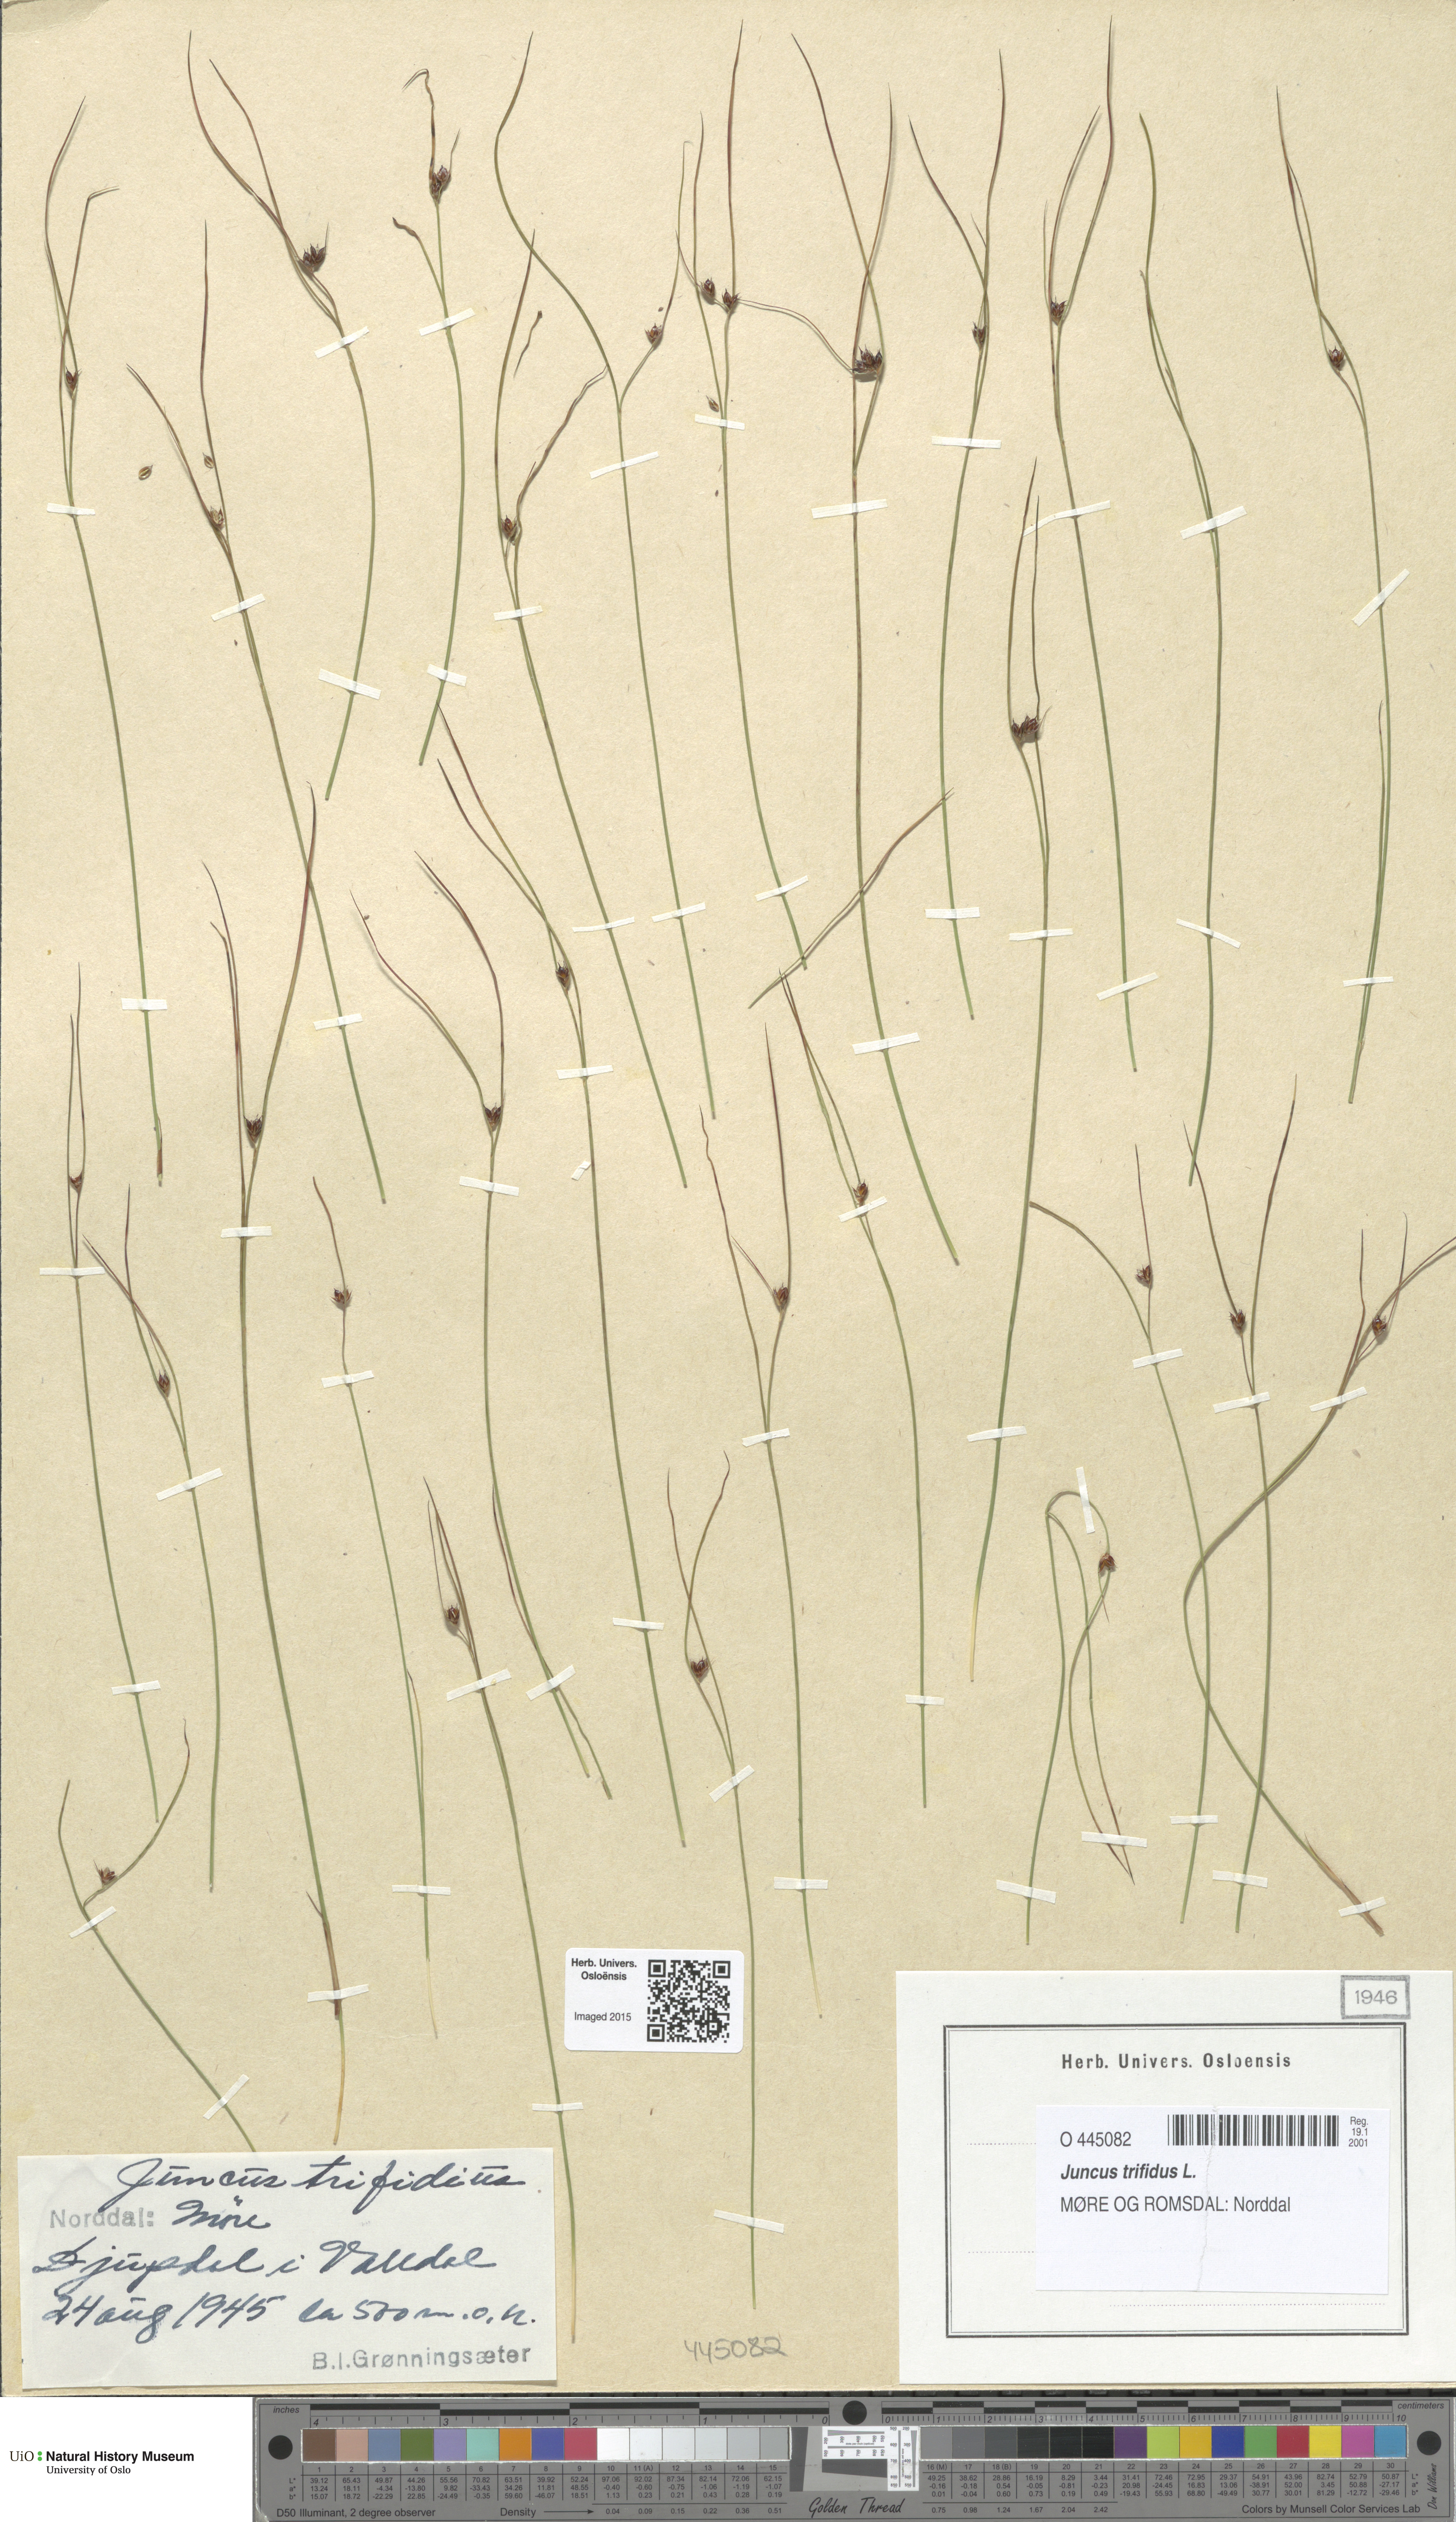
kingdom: Plantae
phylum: Tracheophyta
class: Liliopsida
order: Poales
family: Juncaceae
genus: Oreojuncus
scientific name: Oreojuncus trifidus
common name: Highland rush
